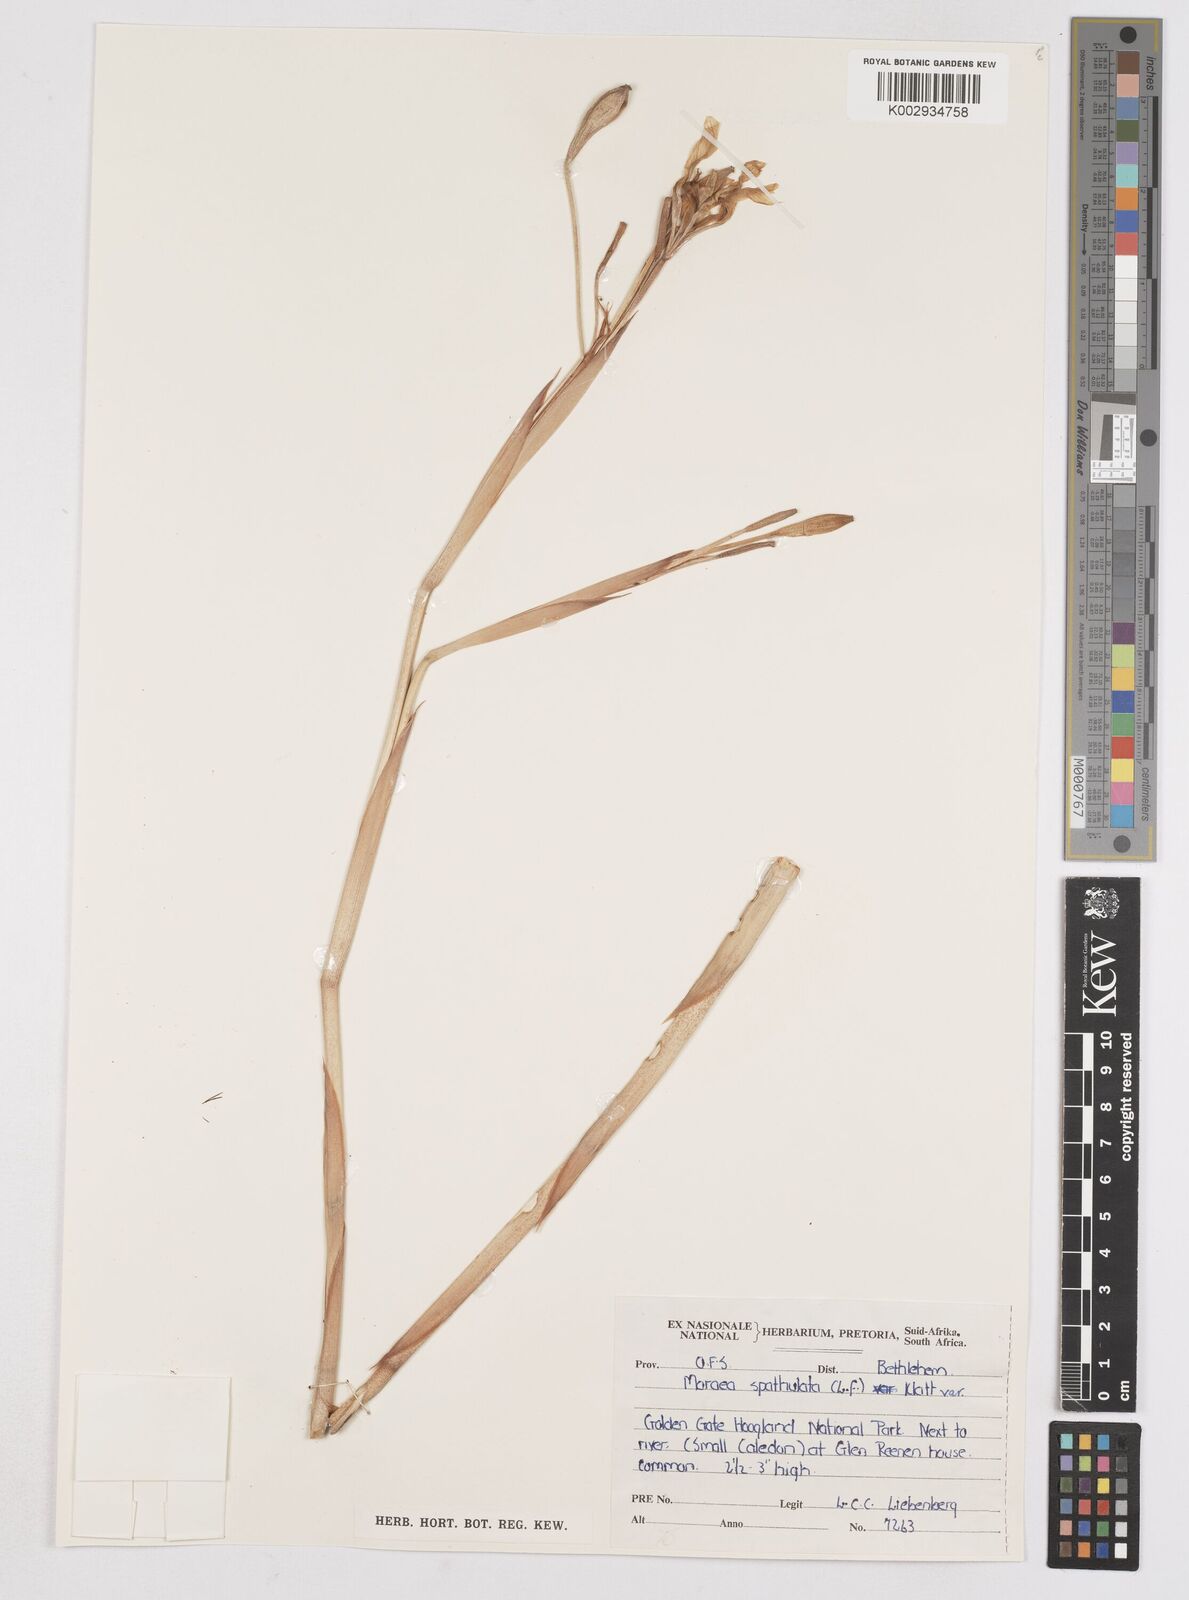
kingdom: Plantae
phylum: Tracheophyta
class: Liliopsida
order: Asparagales
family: Iridaceae
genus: Moraea
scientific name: Moraea spathulata
